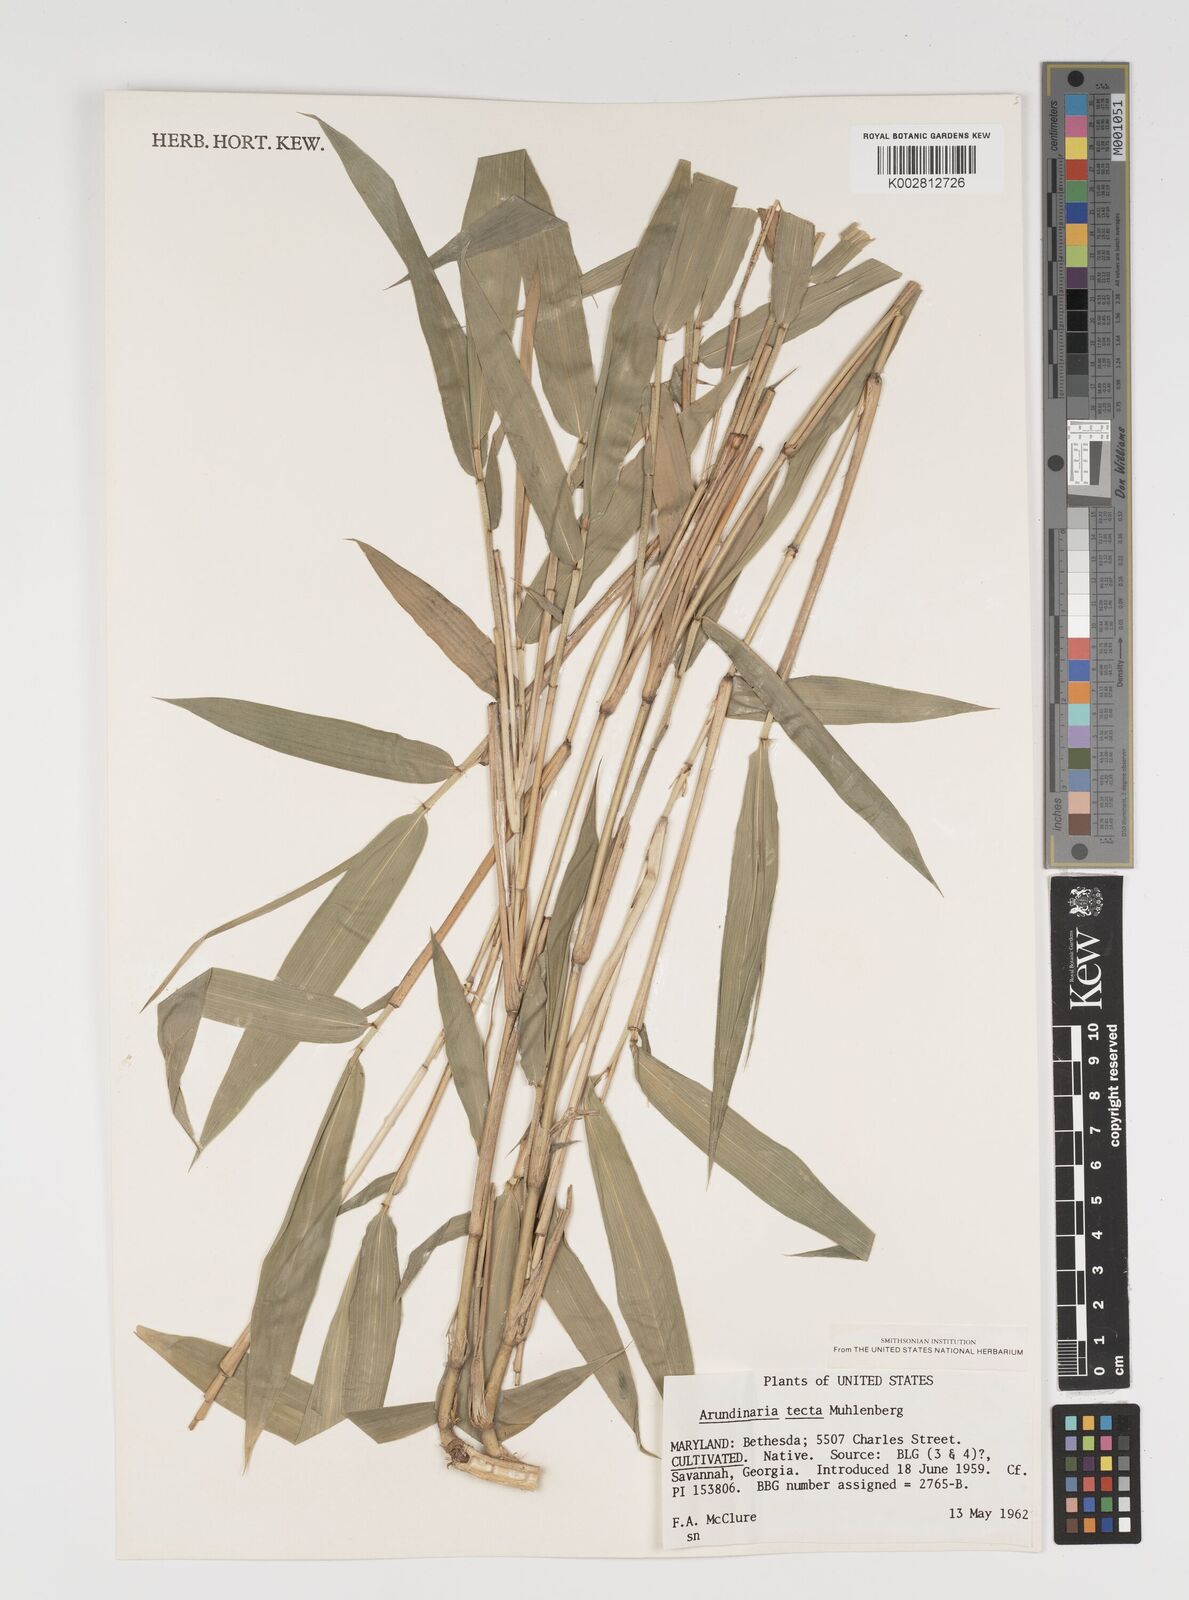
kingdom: Plantae
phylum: Tracheophyta
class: Liliopsida
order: Poales
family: Poaceae
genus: Arundinaria
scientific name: Arundinaria tecta
